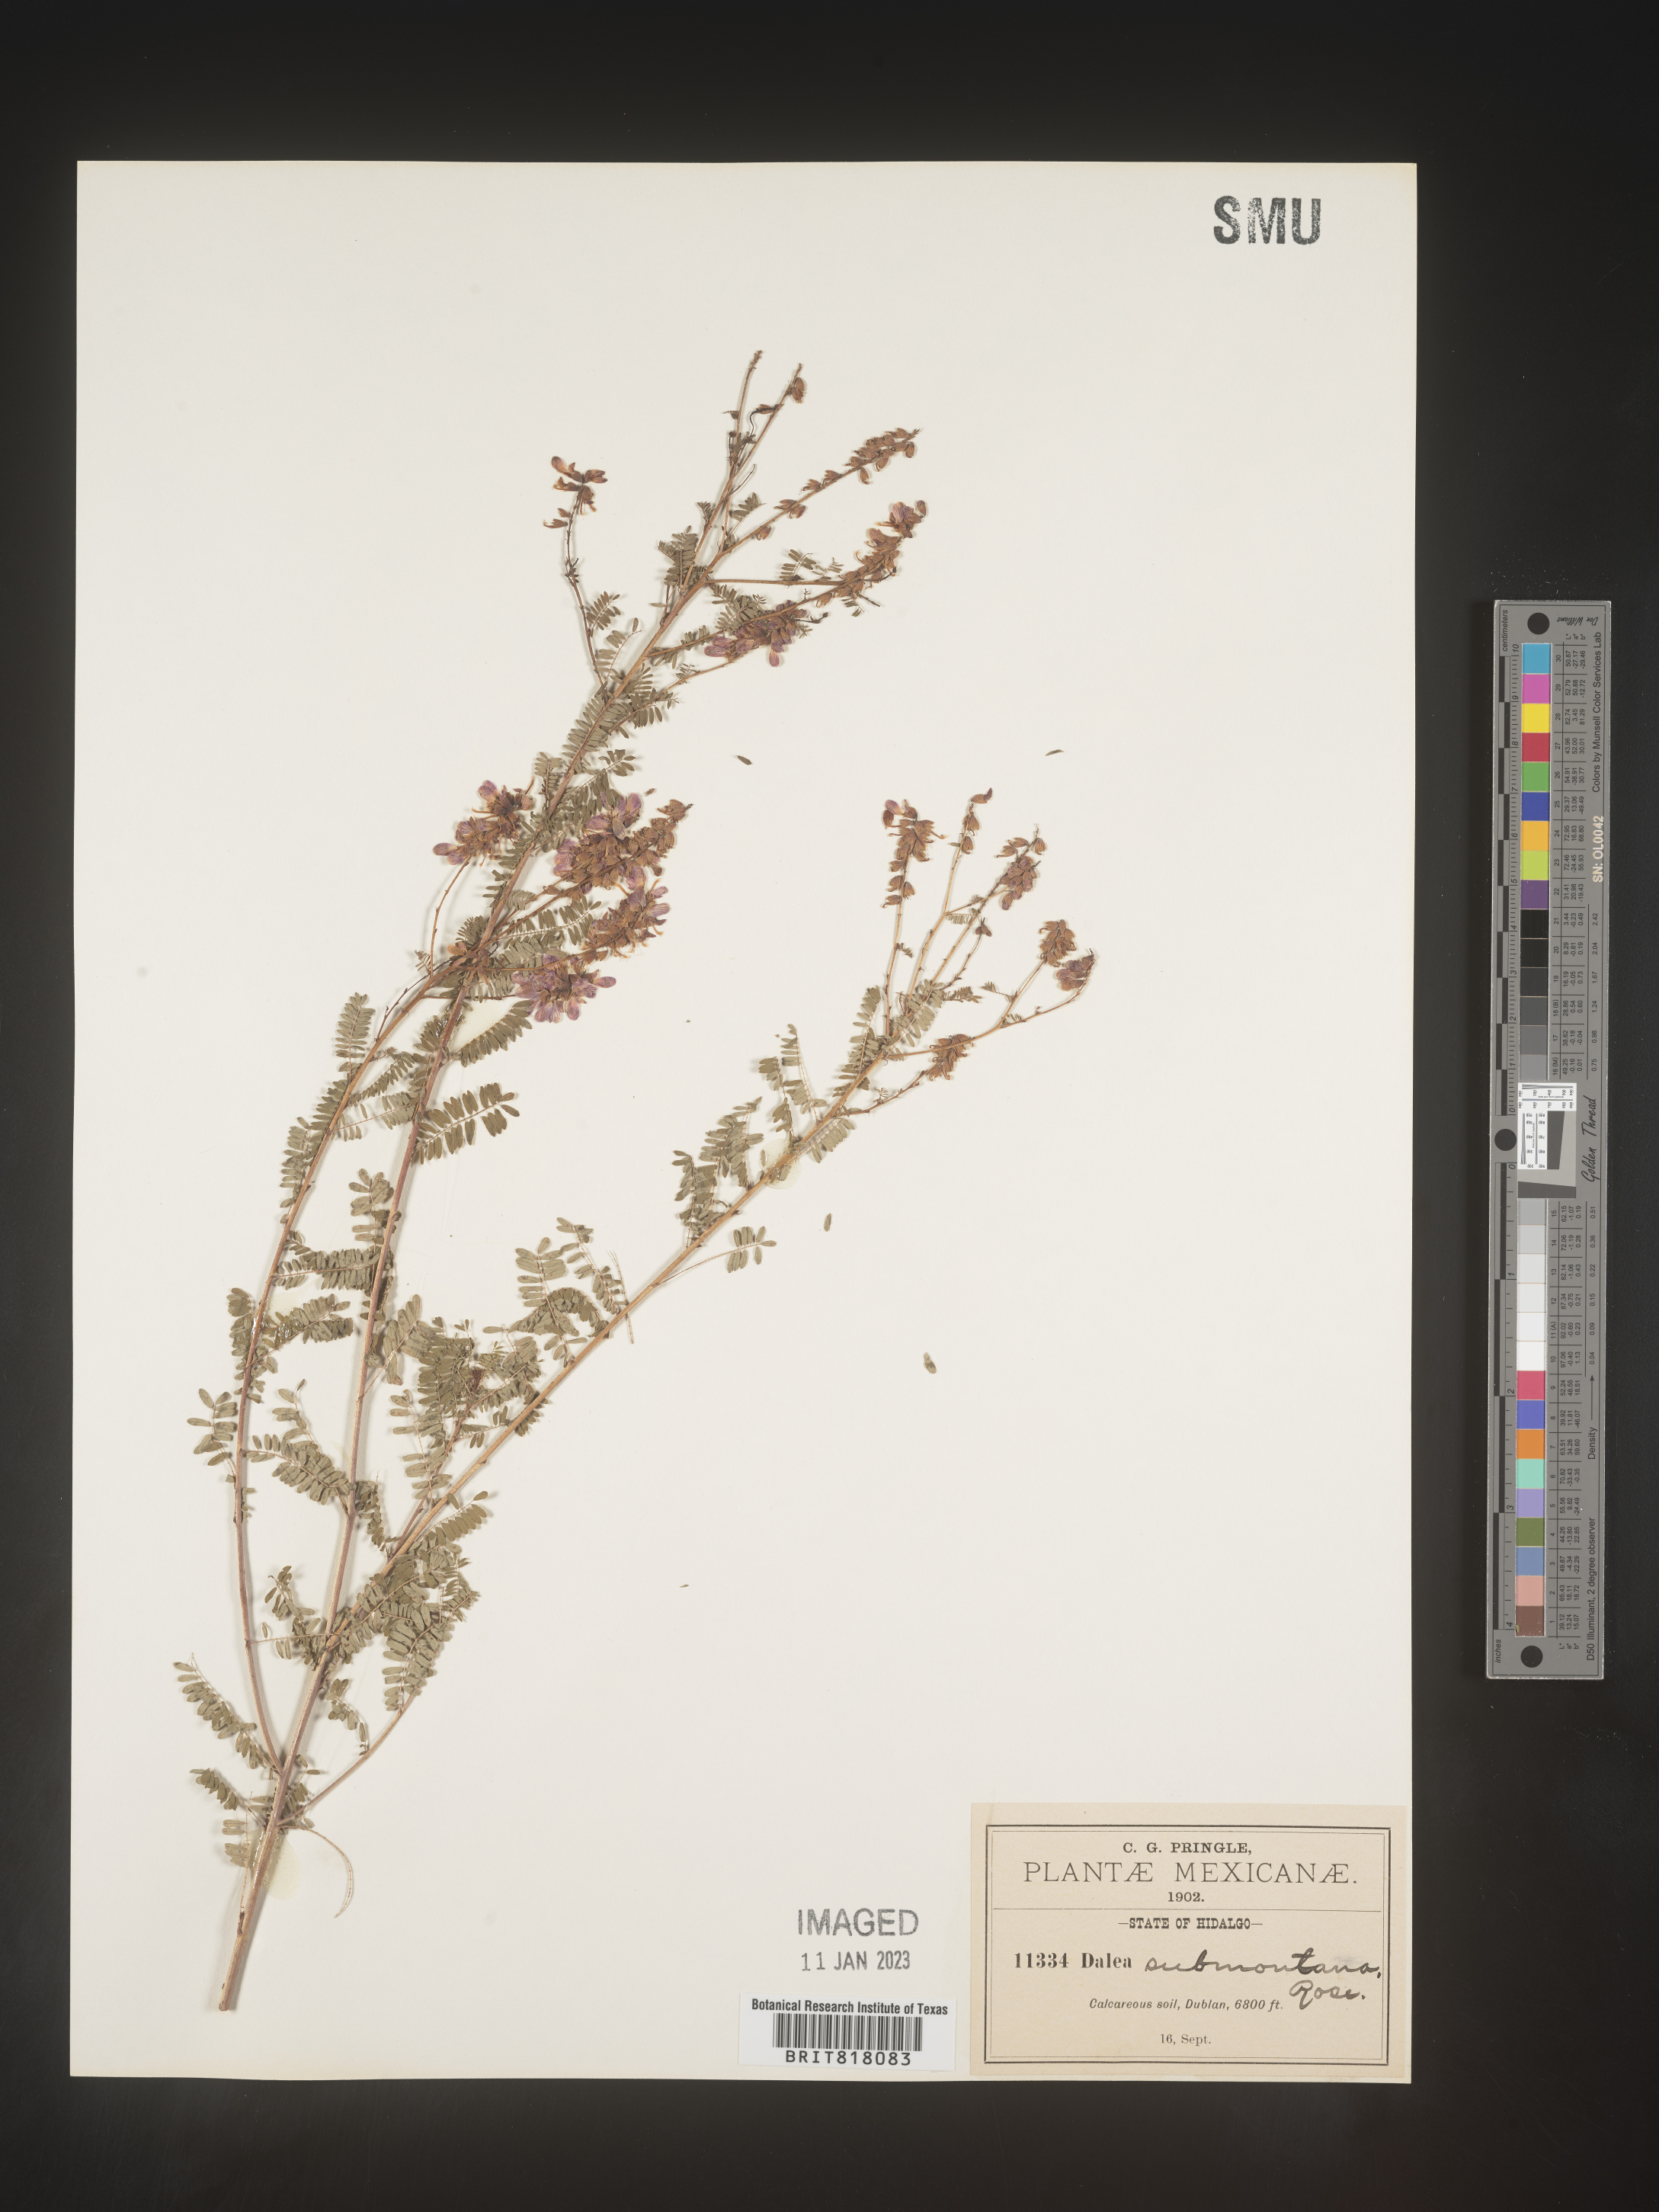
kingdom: Plantae
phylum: Tracheophyta
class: Magnoliopsida
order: Fabales
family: Fabaceae
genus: Dalea
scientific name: Dalea
